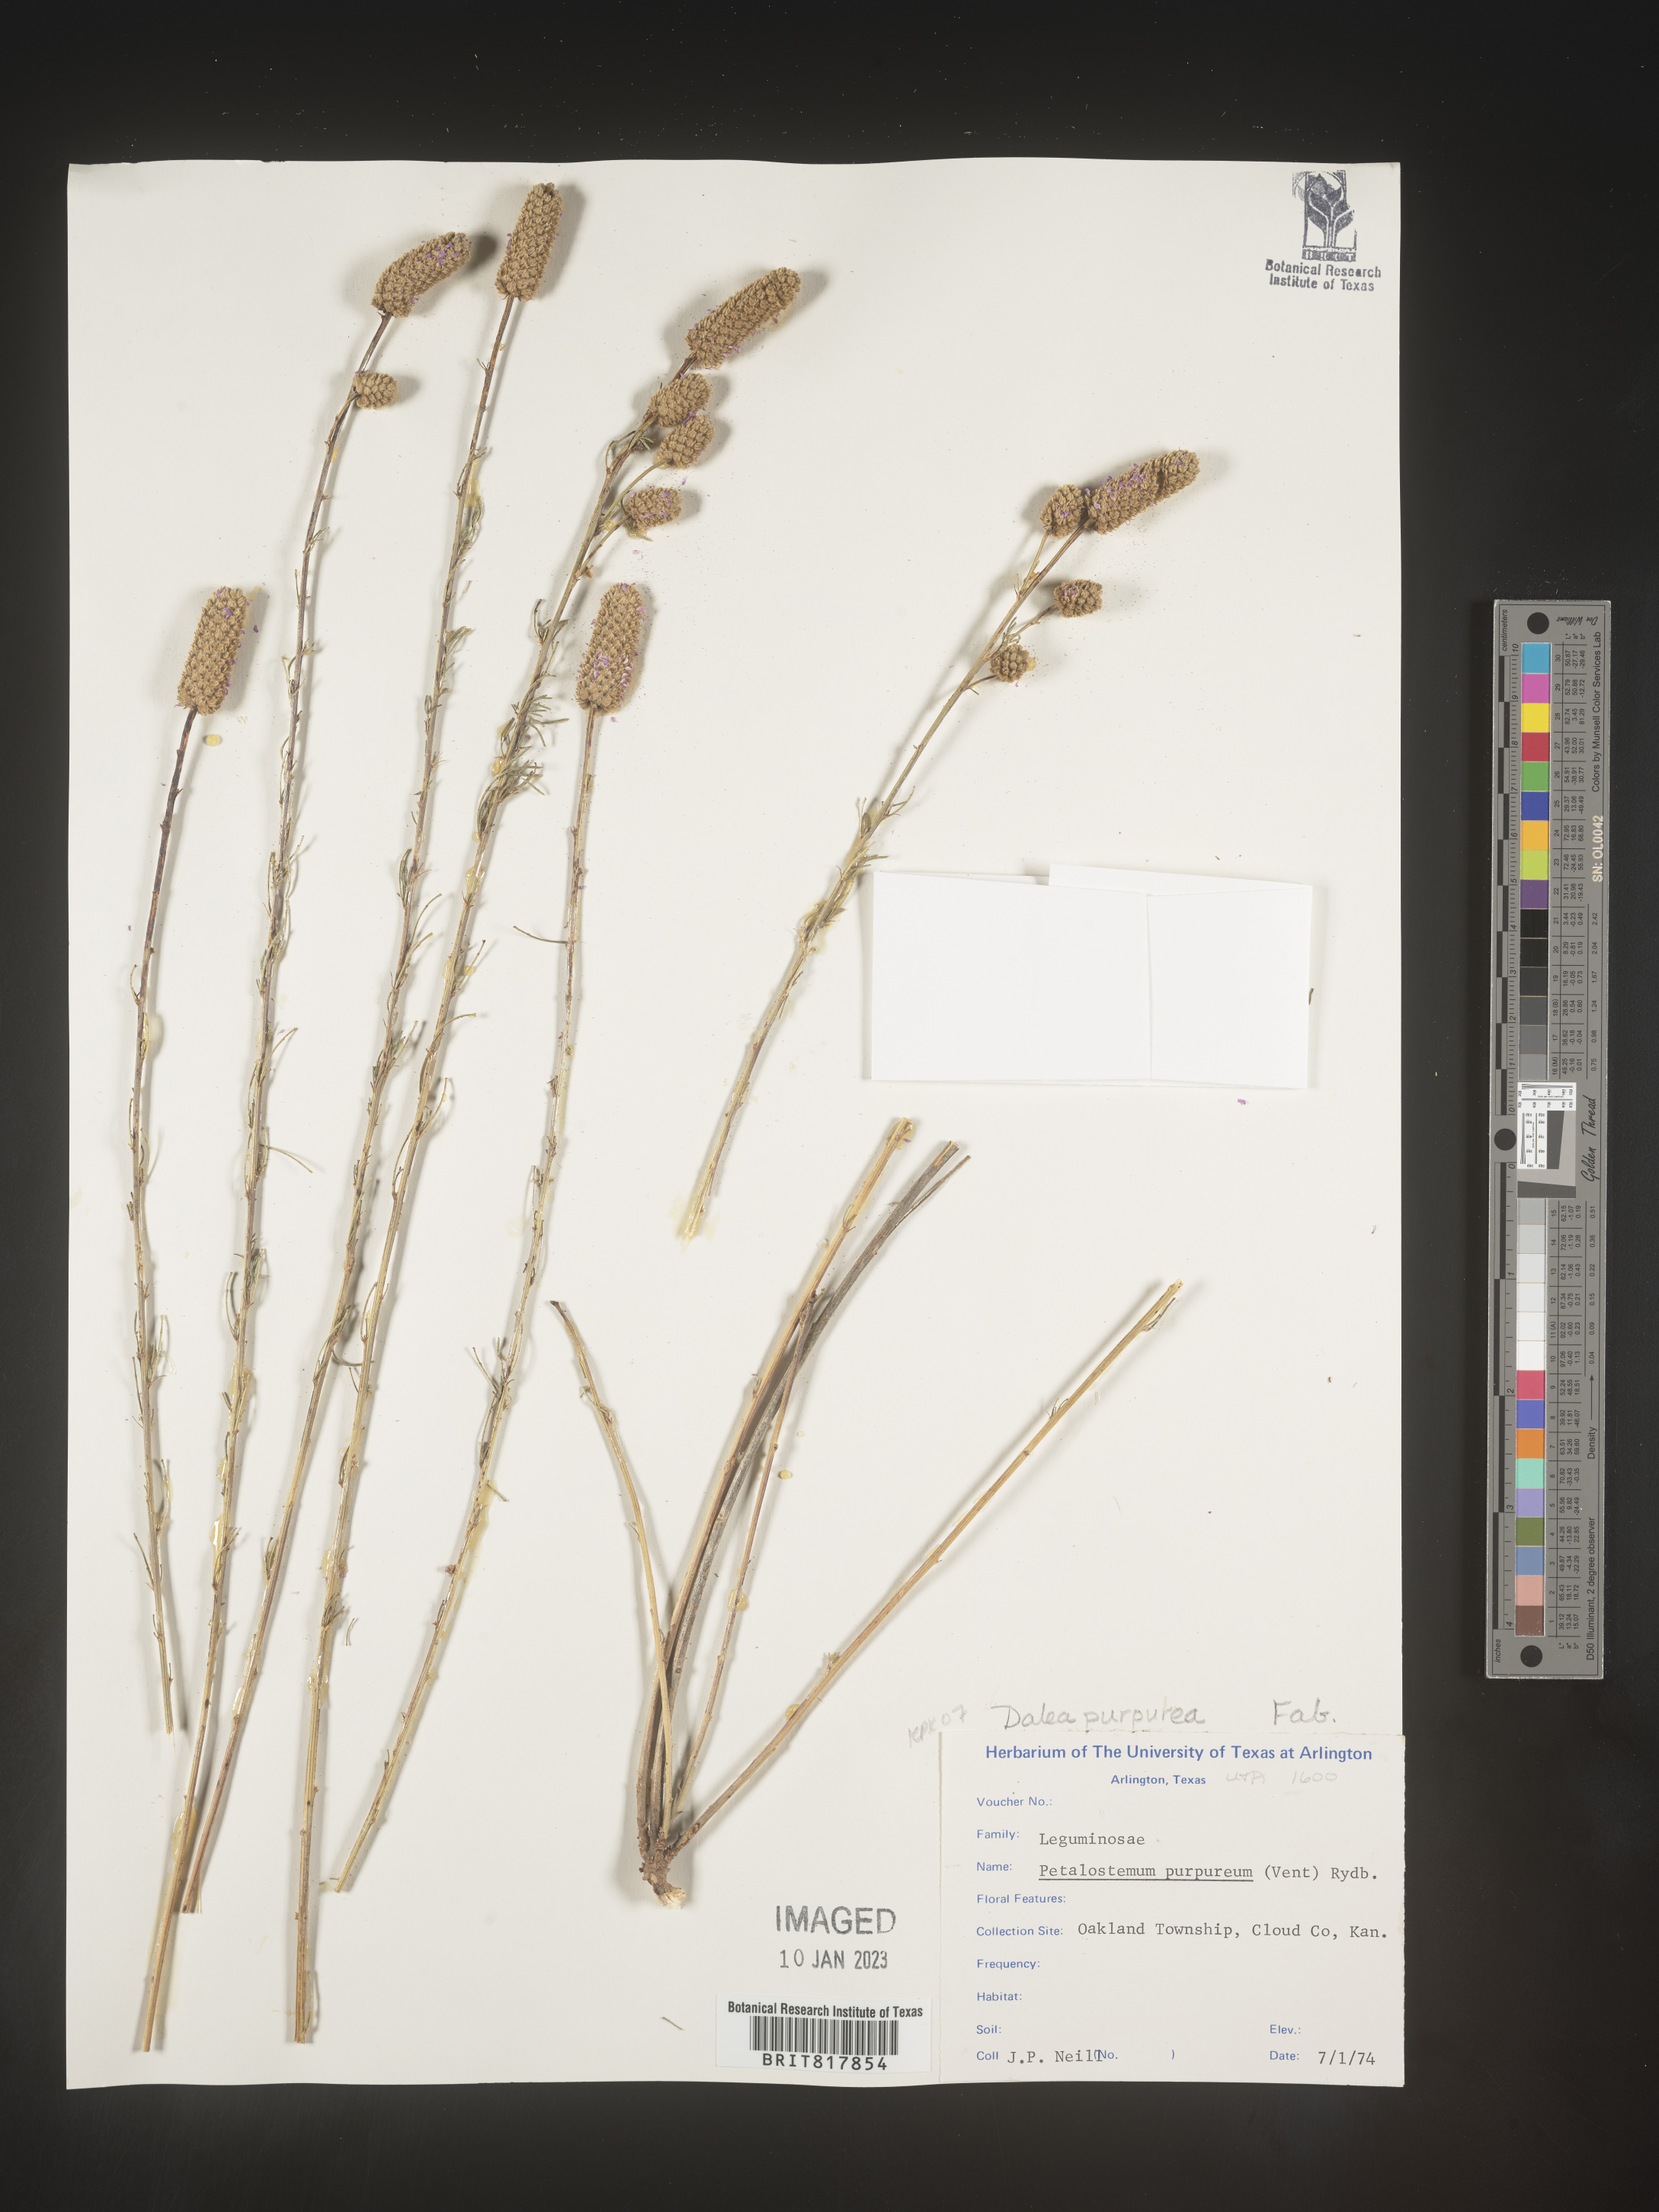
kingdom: Plantae
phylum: Tracheophyta
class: Magnoliopsida
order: Fabales
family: Fabaceae
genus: Dalea
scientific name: Dalea purpurea
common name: Purple prairie-clover
